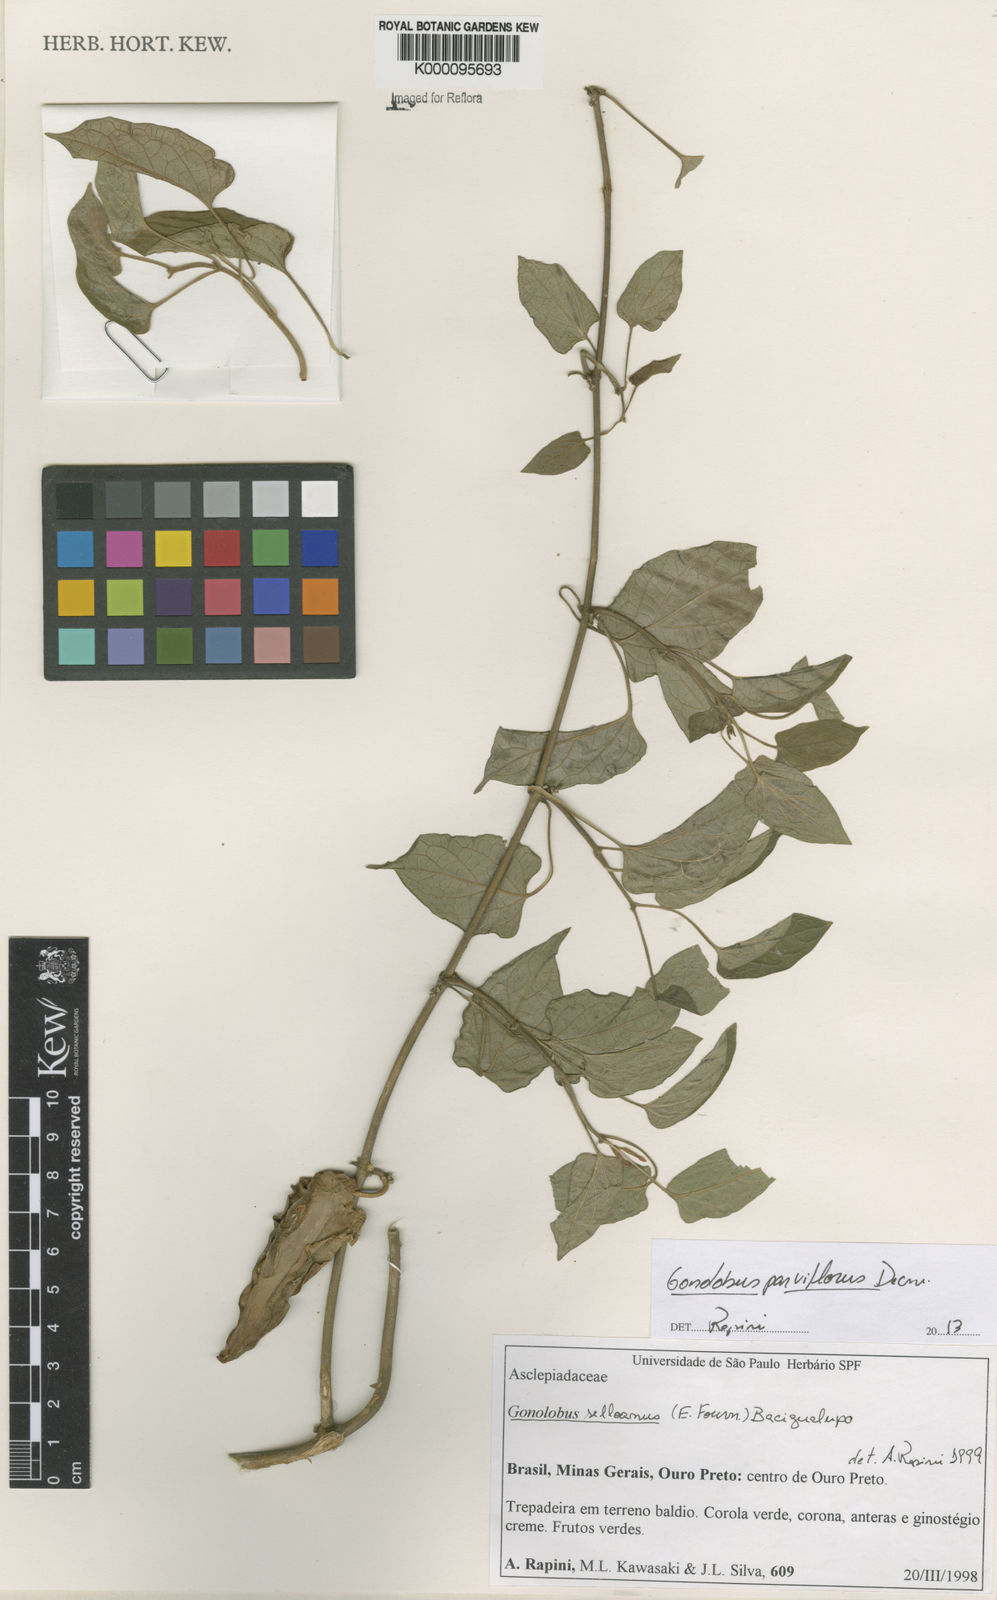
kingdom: Plantae
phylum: Tracheophyta
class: Magnoliopsida
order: Gentianales
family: Apocynaceae
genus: Gonolobus
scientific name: Gonolobus parviflorus
